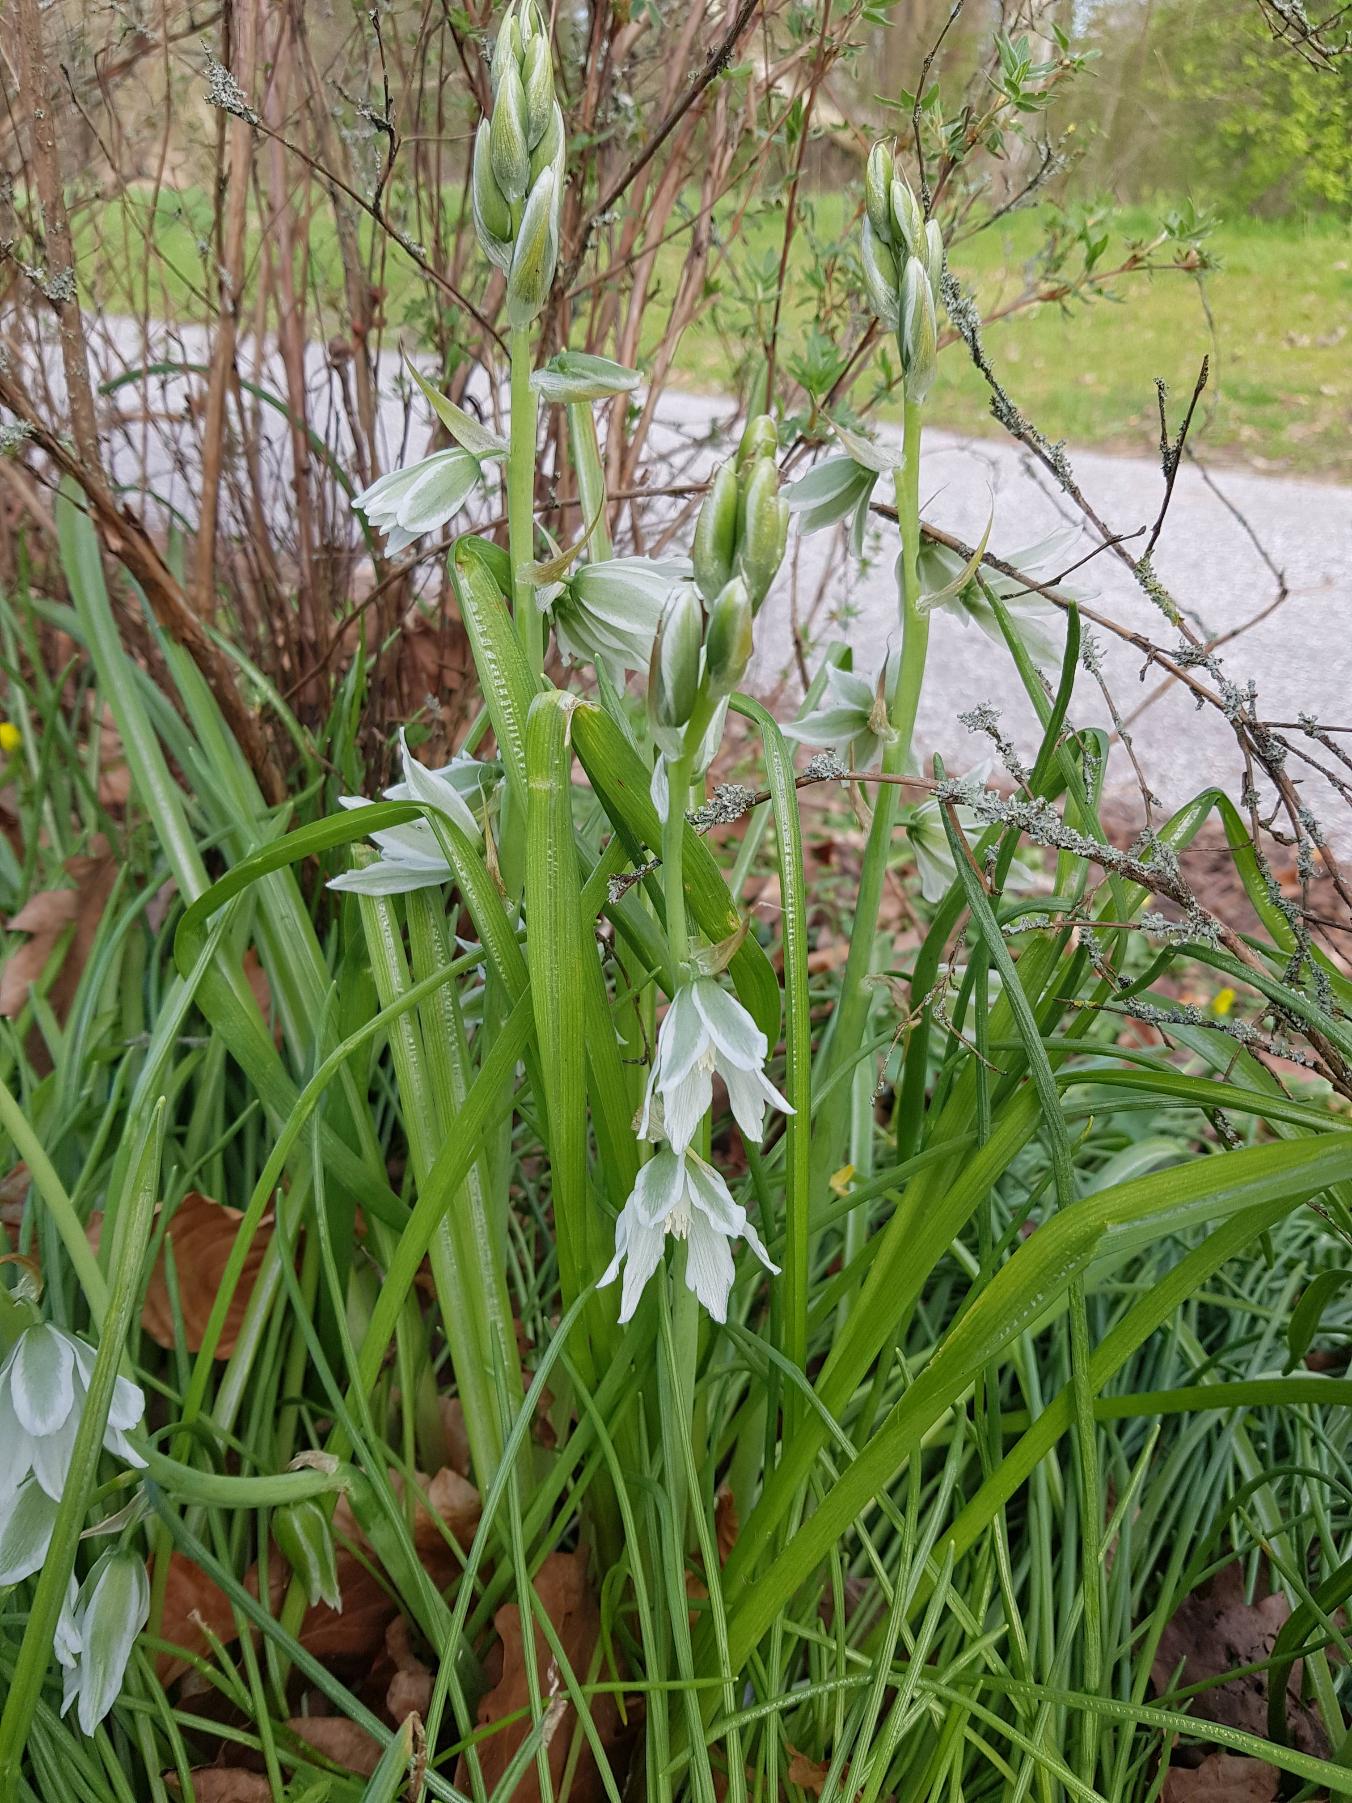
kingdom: Plantae
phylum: Tracheophyta
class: Liliopsida
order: Asparagales
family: Asparagaceae
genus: Ornithogalum
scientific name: Ornithogalum nutans
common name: Nikkende fuglemælk
